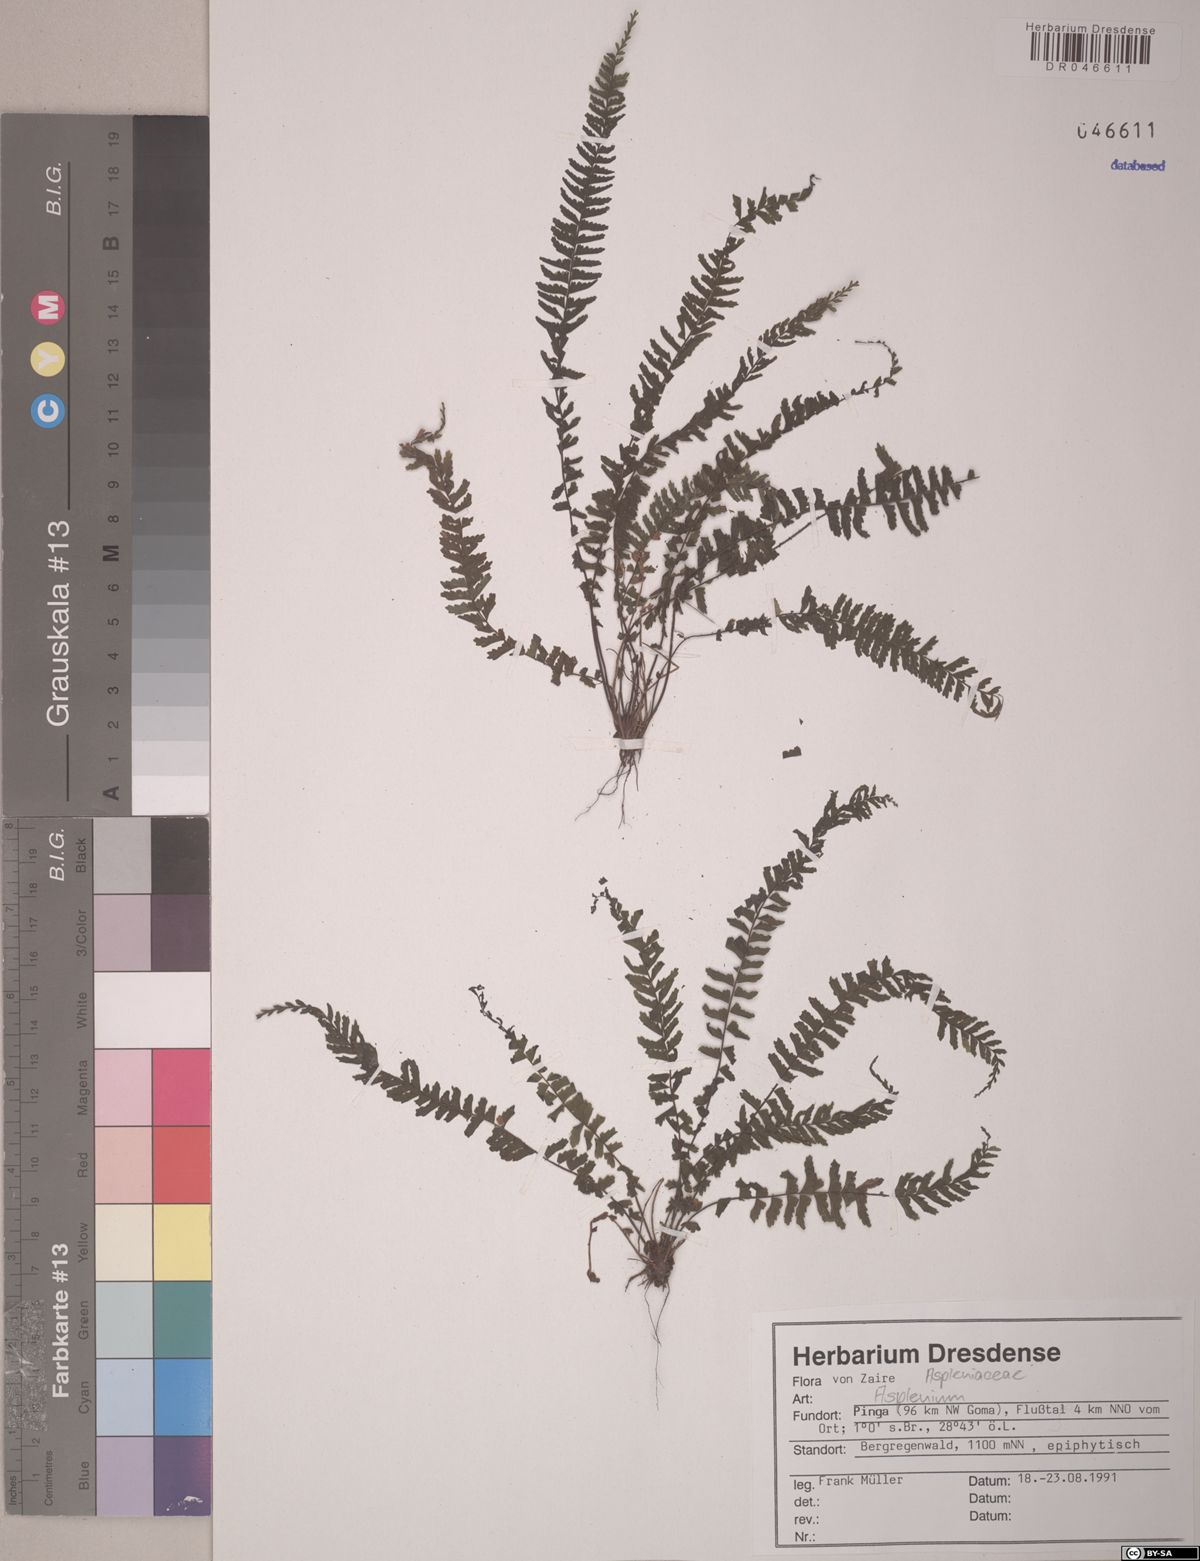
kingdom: Plantae
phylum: Tracheophyta
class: Polypodiopsida
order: Polypodiales
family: Aspleniaceae
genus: Asplenium
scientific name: Asplenium
